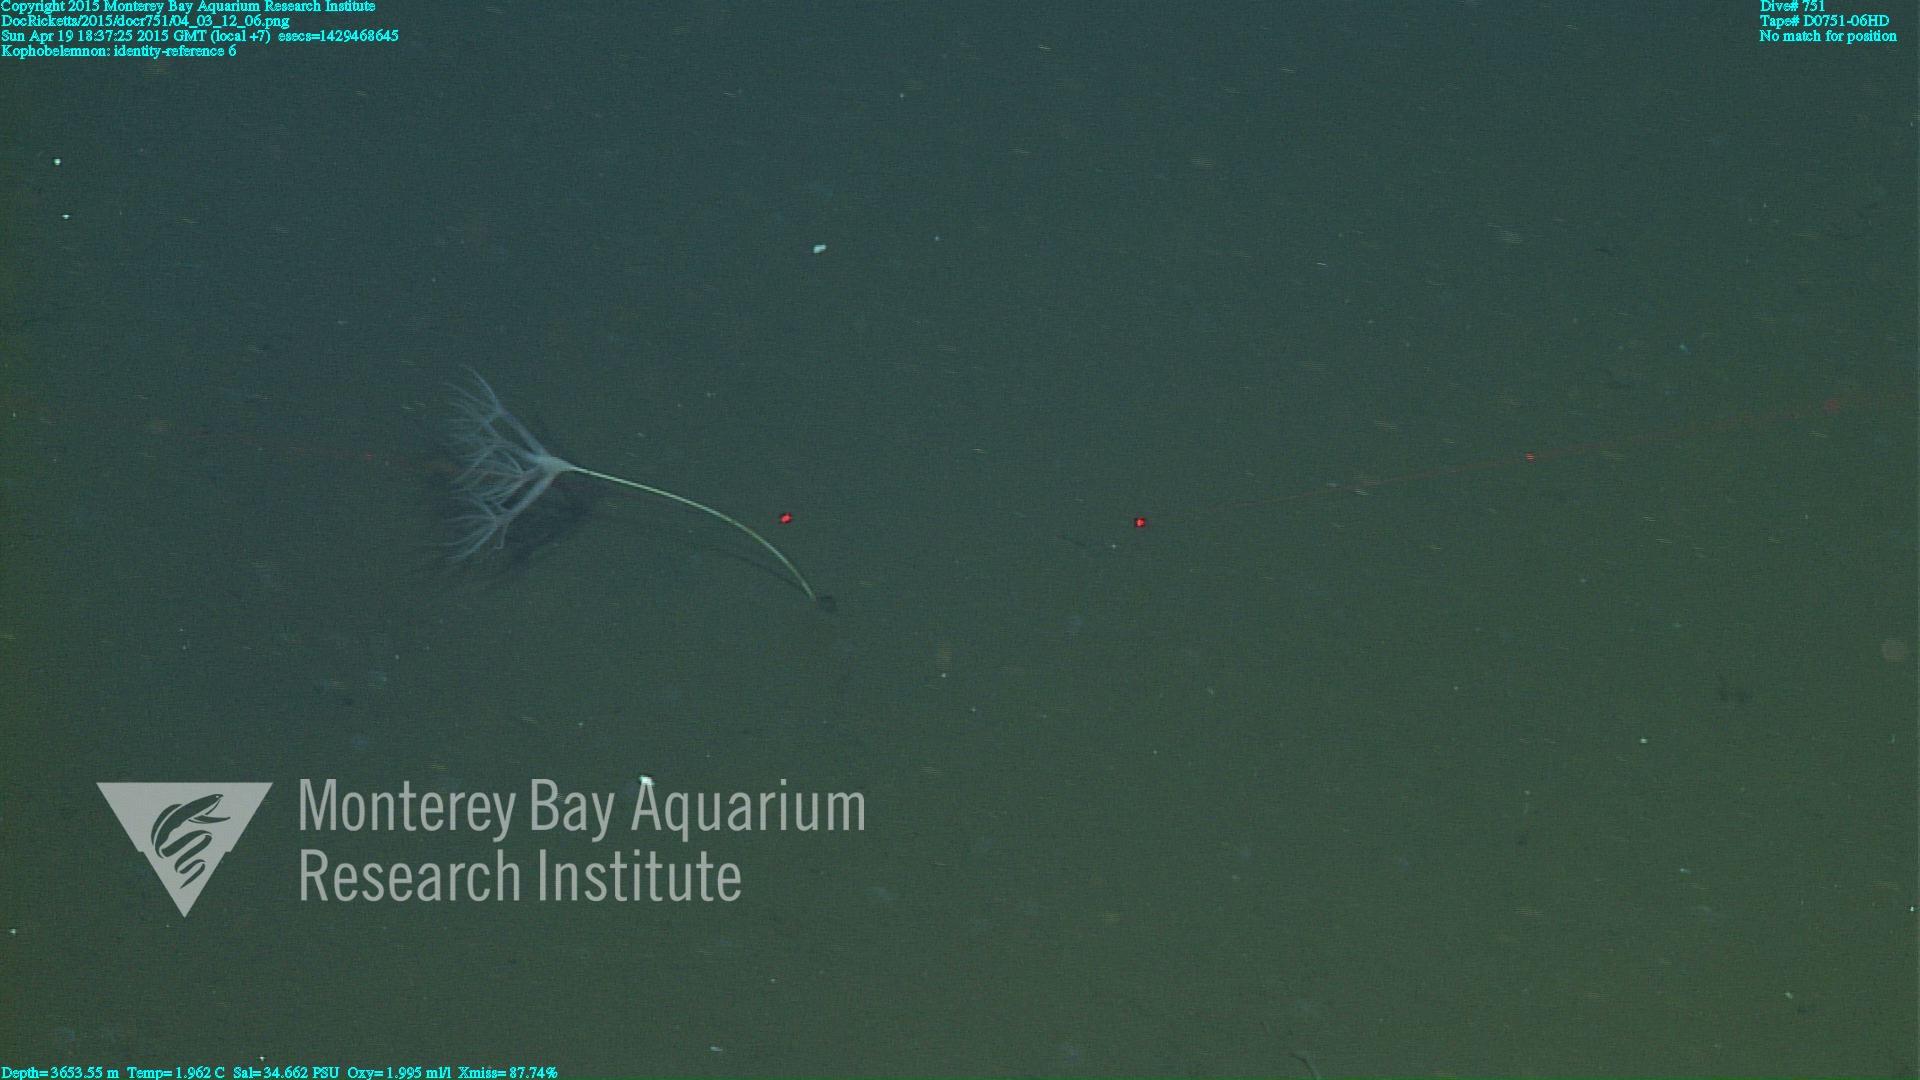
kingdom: Animalia
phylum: Cnidaria
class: Anthozoa
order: Scleralcyonacea
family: Kophobelemnidae
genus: Kophobelemnon
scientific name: Kophobelemnon
